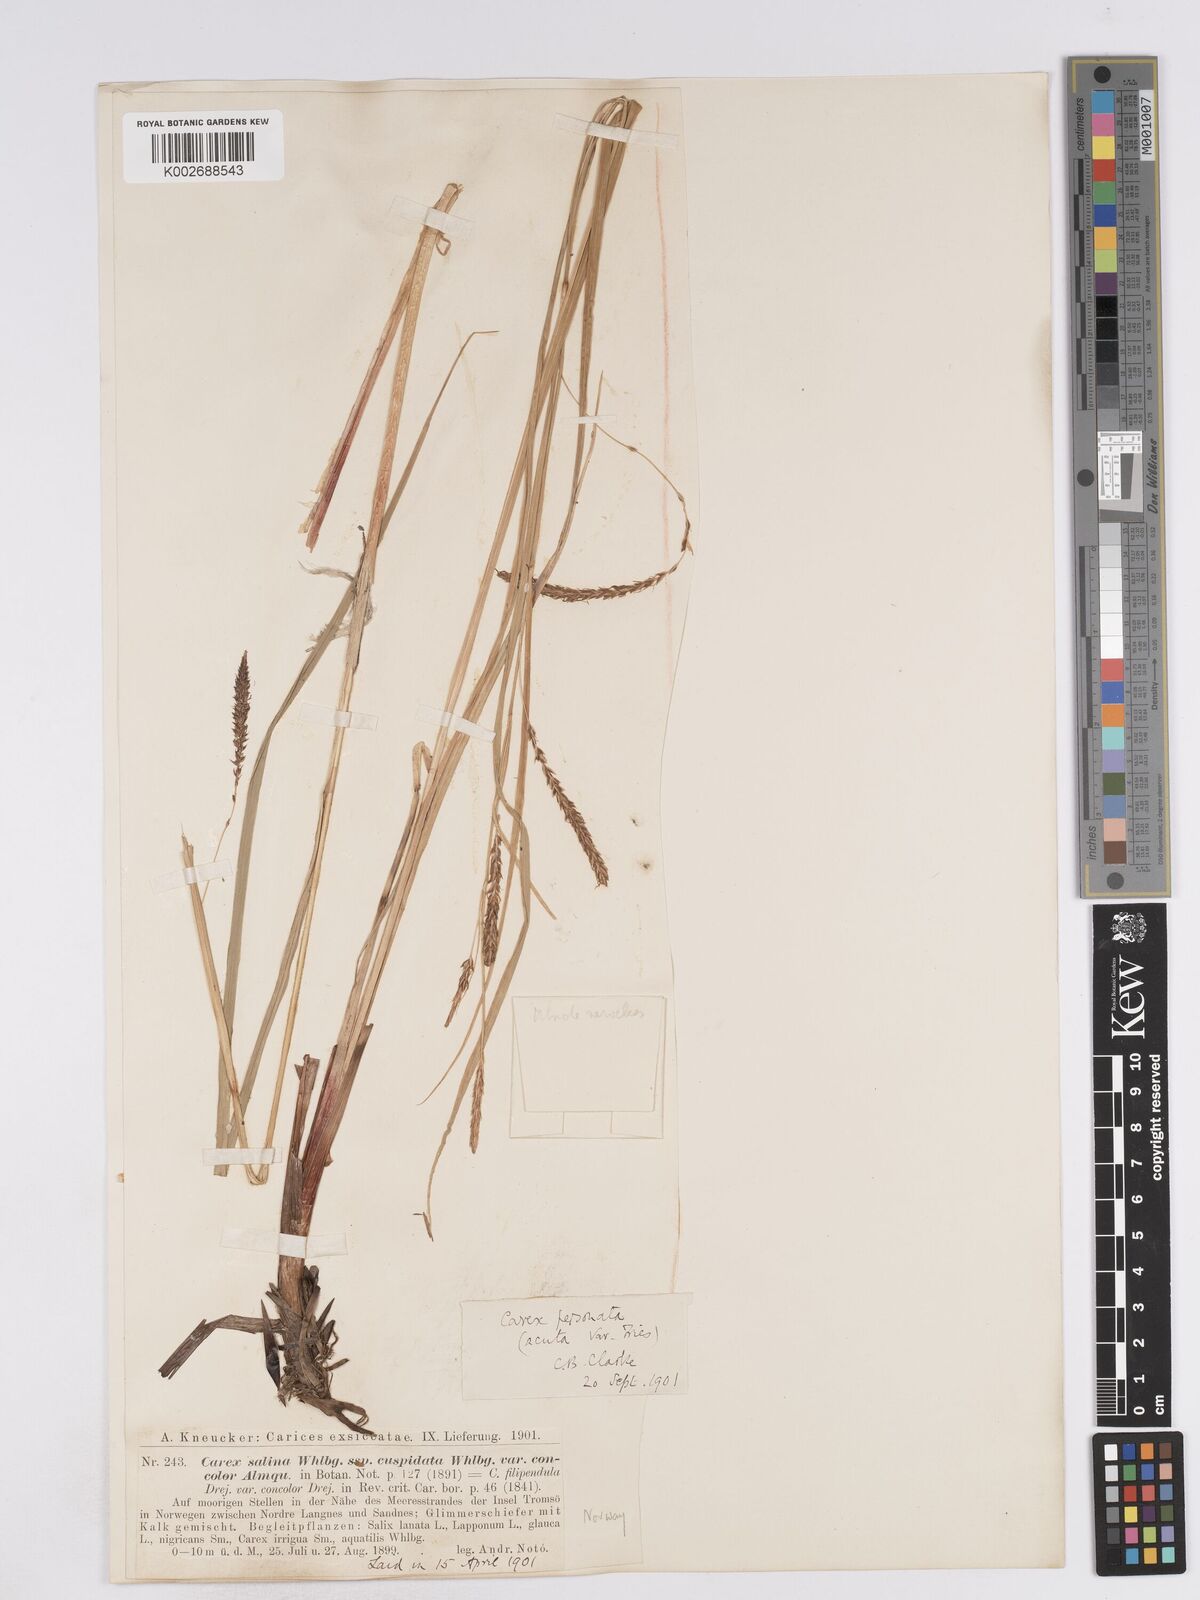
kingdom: Plantae
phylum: Tracheophyta
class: Liliopsida
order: Poales
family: Cyperaceae
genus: Carex
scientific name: Carex recta
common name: Estuarine sedge
